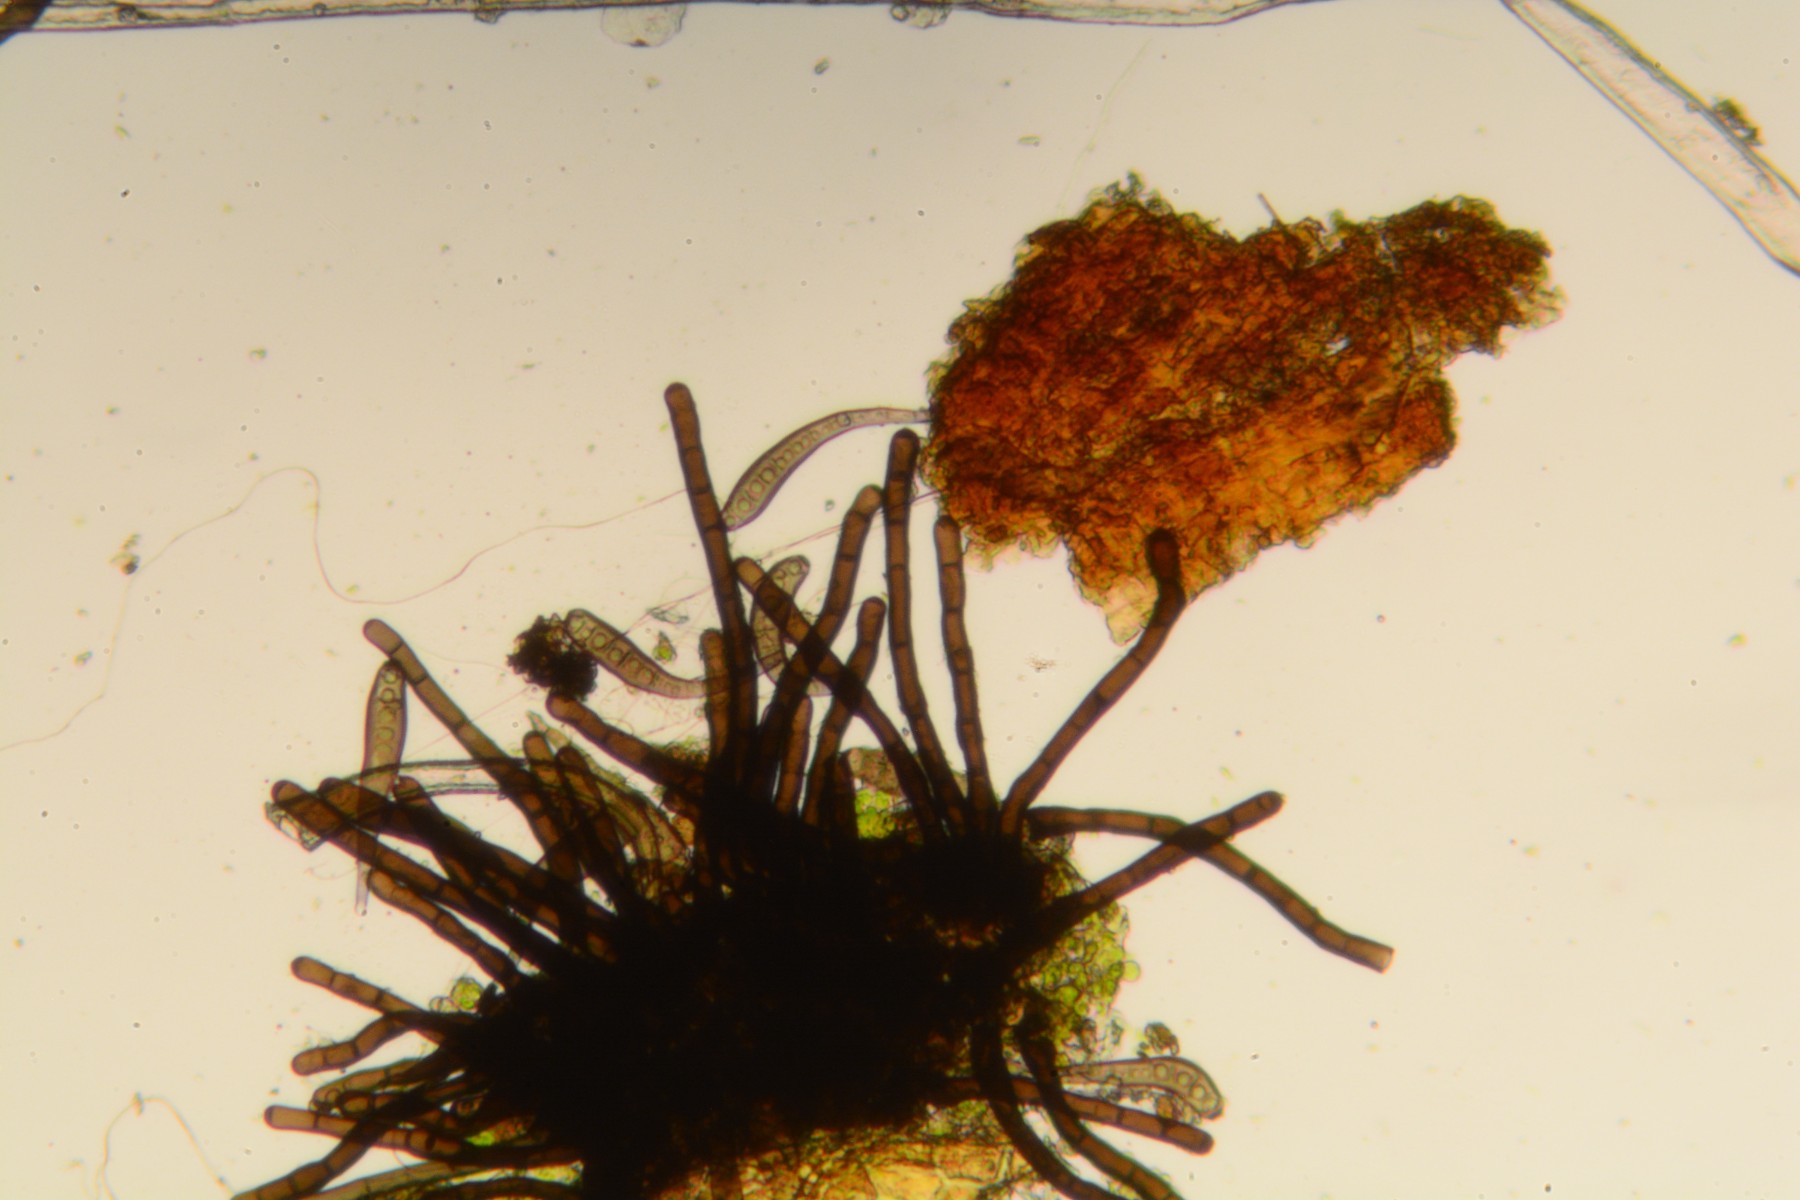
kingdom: Fungi
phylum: Ascomycota
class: Dothideomycetes
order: Pleosporales
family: Massarinaceae
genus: Helminthosporium
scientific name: Helminthosporium velutinum
